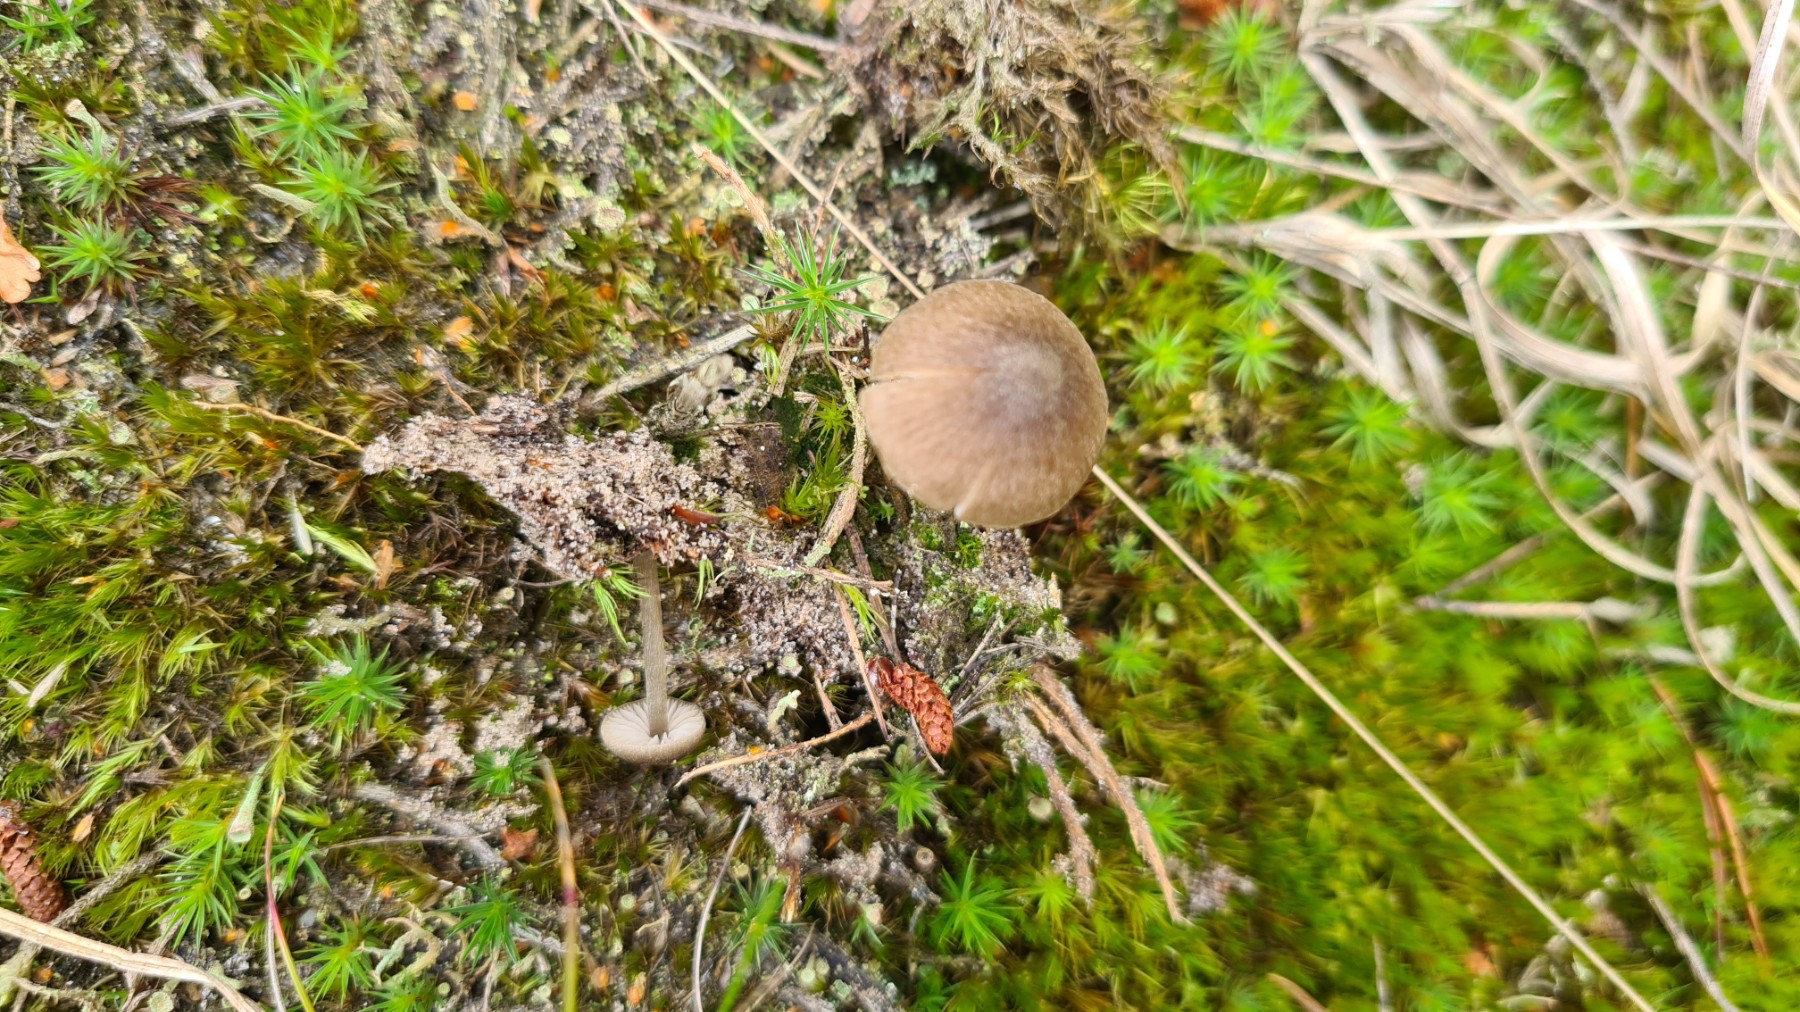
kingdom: Fungi
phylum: Basidiomycota
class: Agaricomycetes
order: Agaricales
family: Entolomataceae
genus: Entoloma
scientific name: Entoloma
